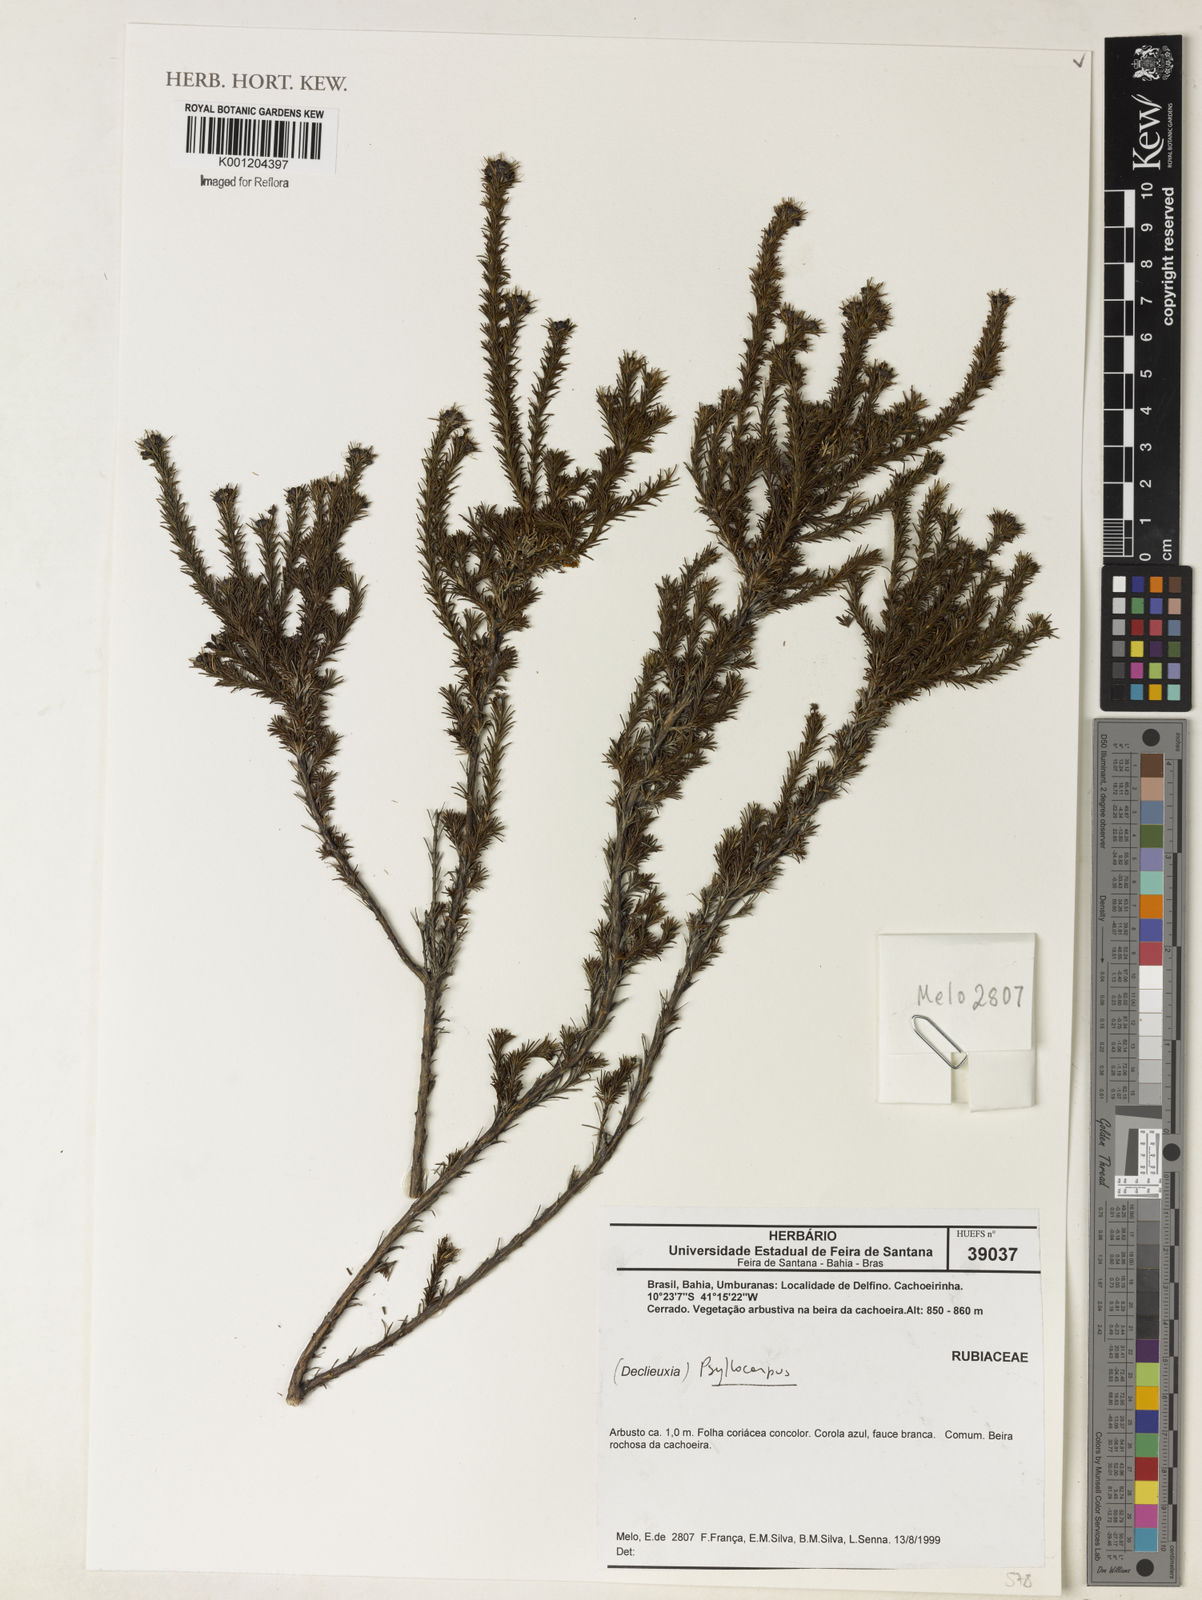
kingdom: Plantae
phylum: Tracheophyta
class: Magnoliopsida
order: Gentianales
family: Rubiaceae
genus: Psyllocarpus
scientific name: Psyllocarpus
